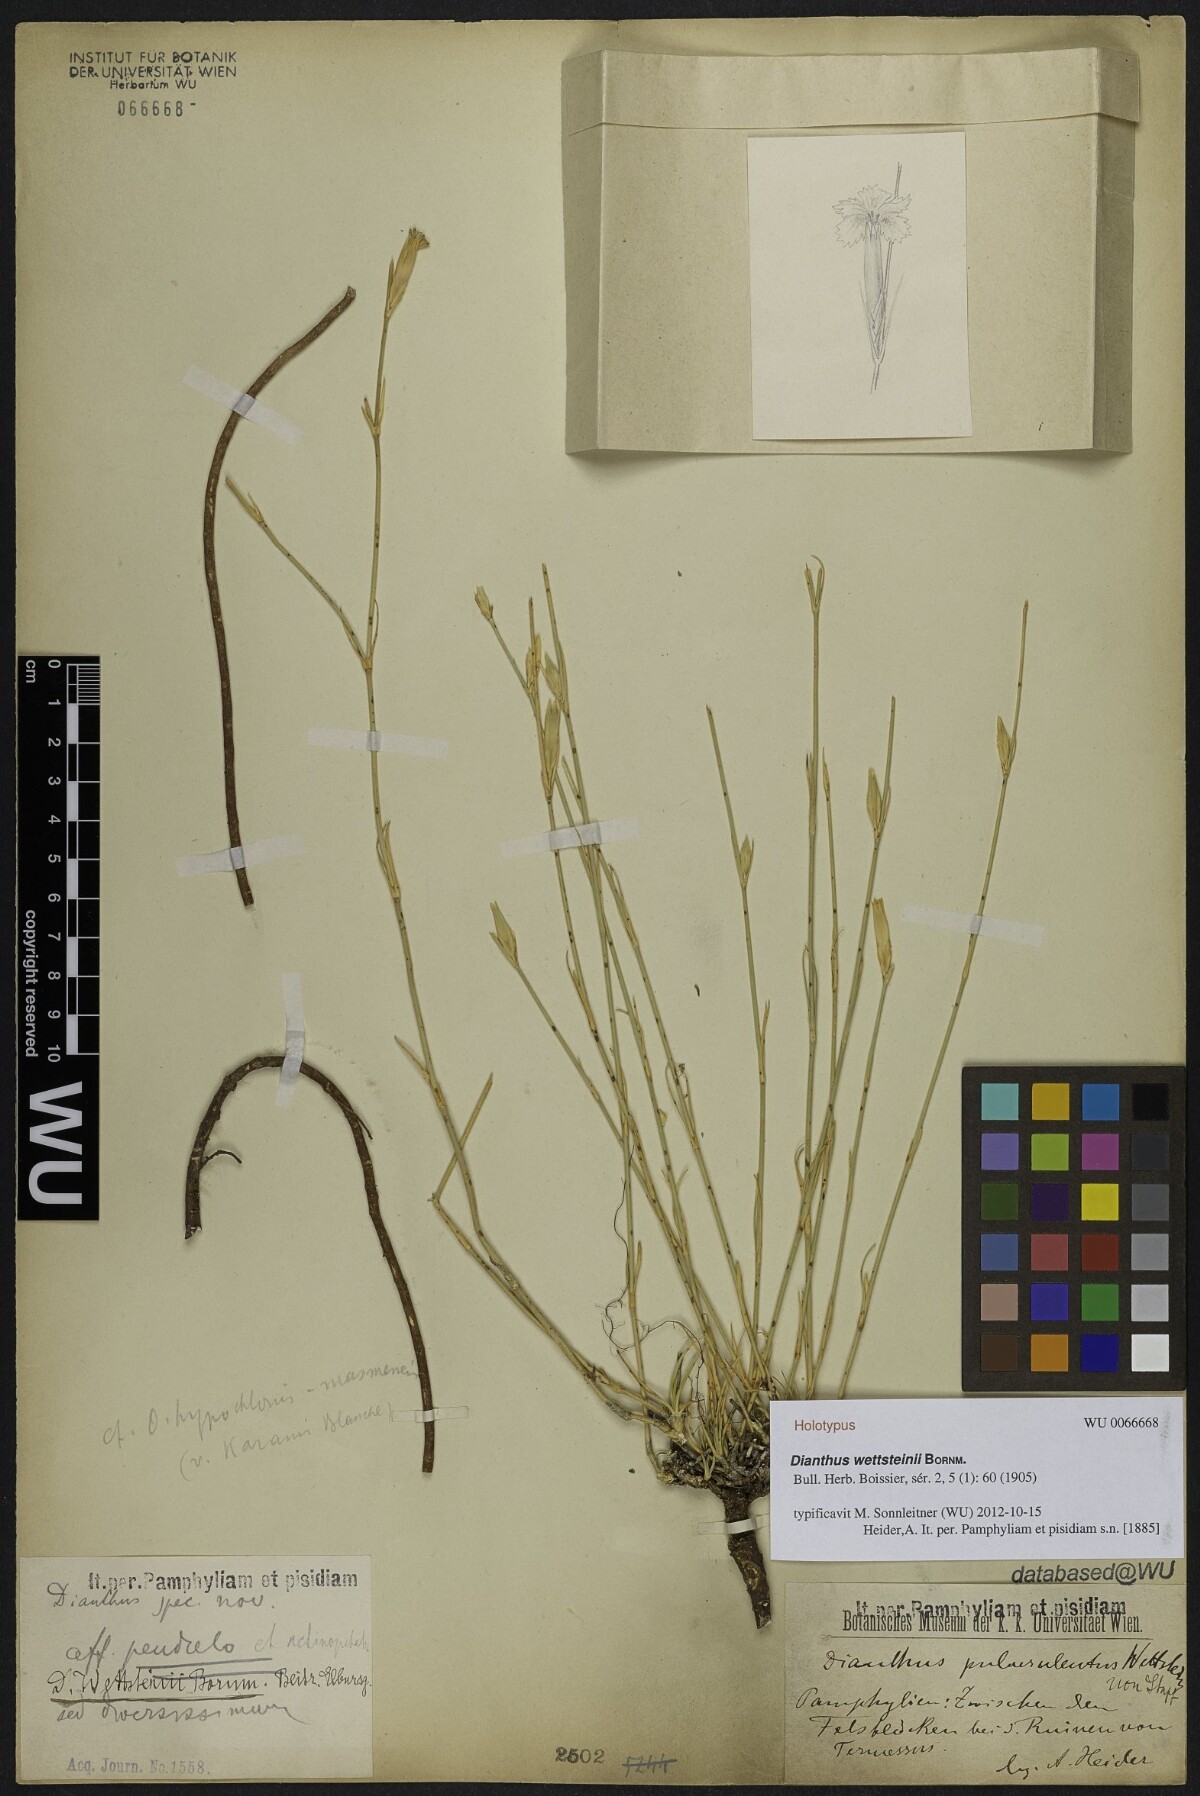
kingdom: Plantae
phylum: Tracheophyta
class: Magnoliopsida
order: Caryophyllales
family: Caryophyllaceae
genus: Dianthus
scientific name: Dianthus wettsteinii
